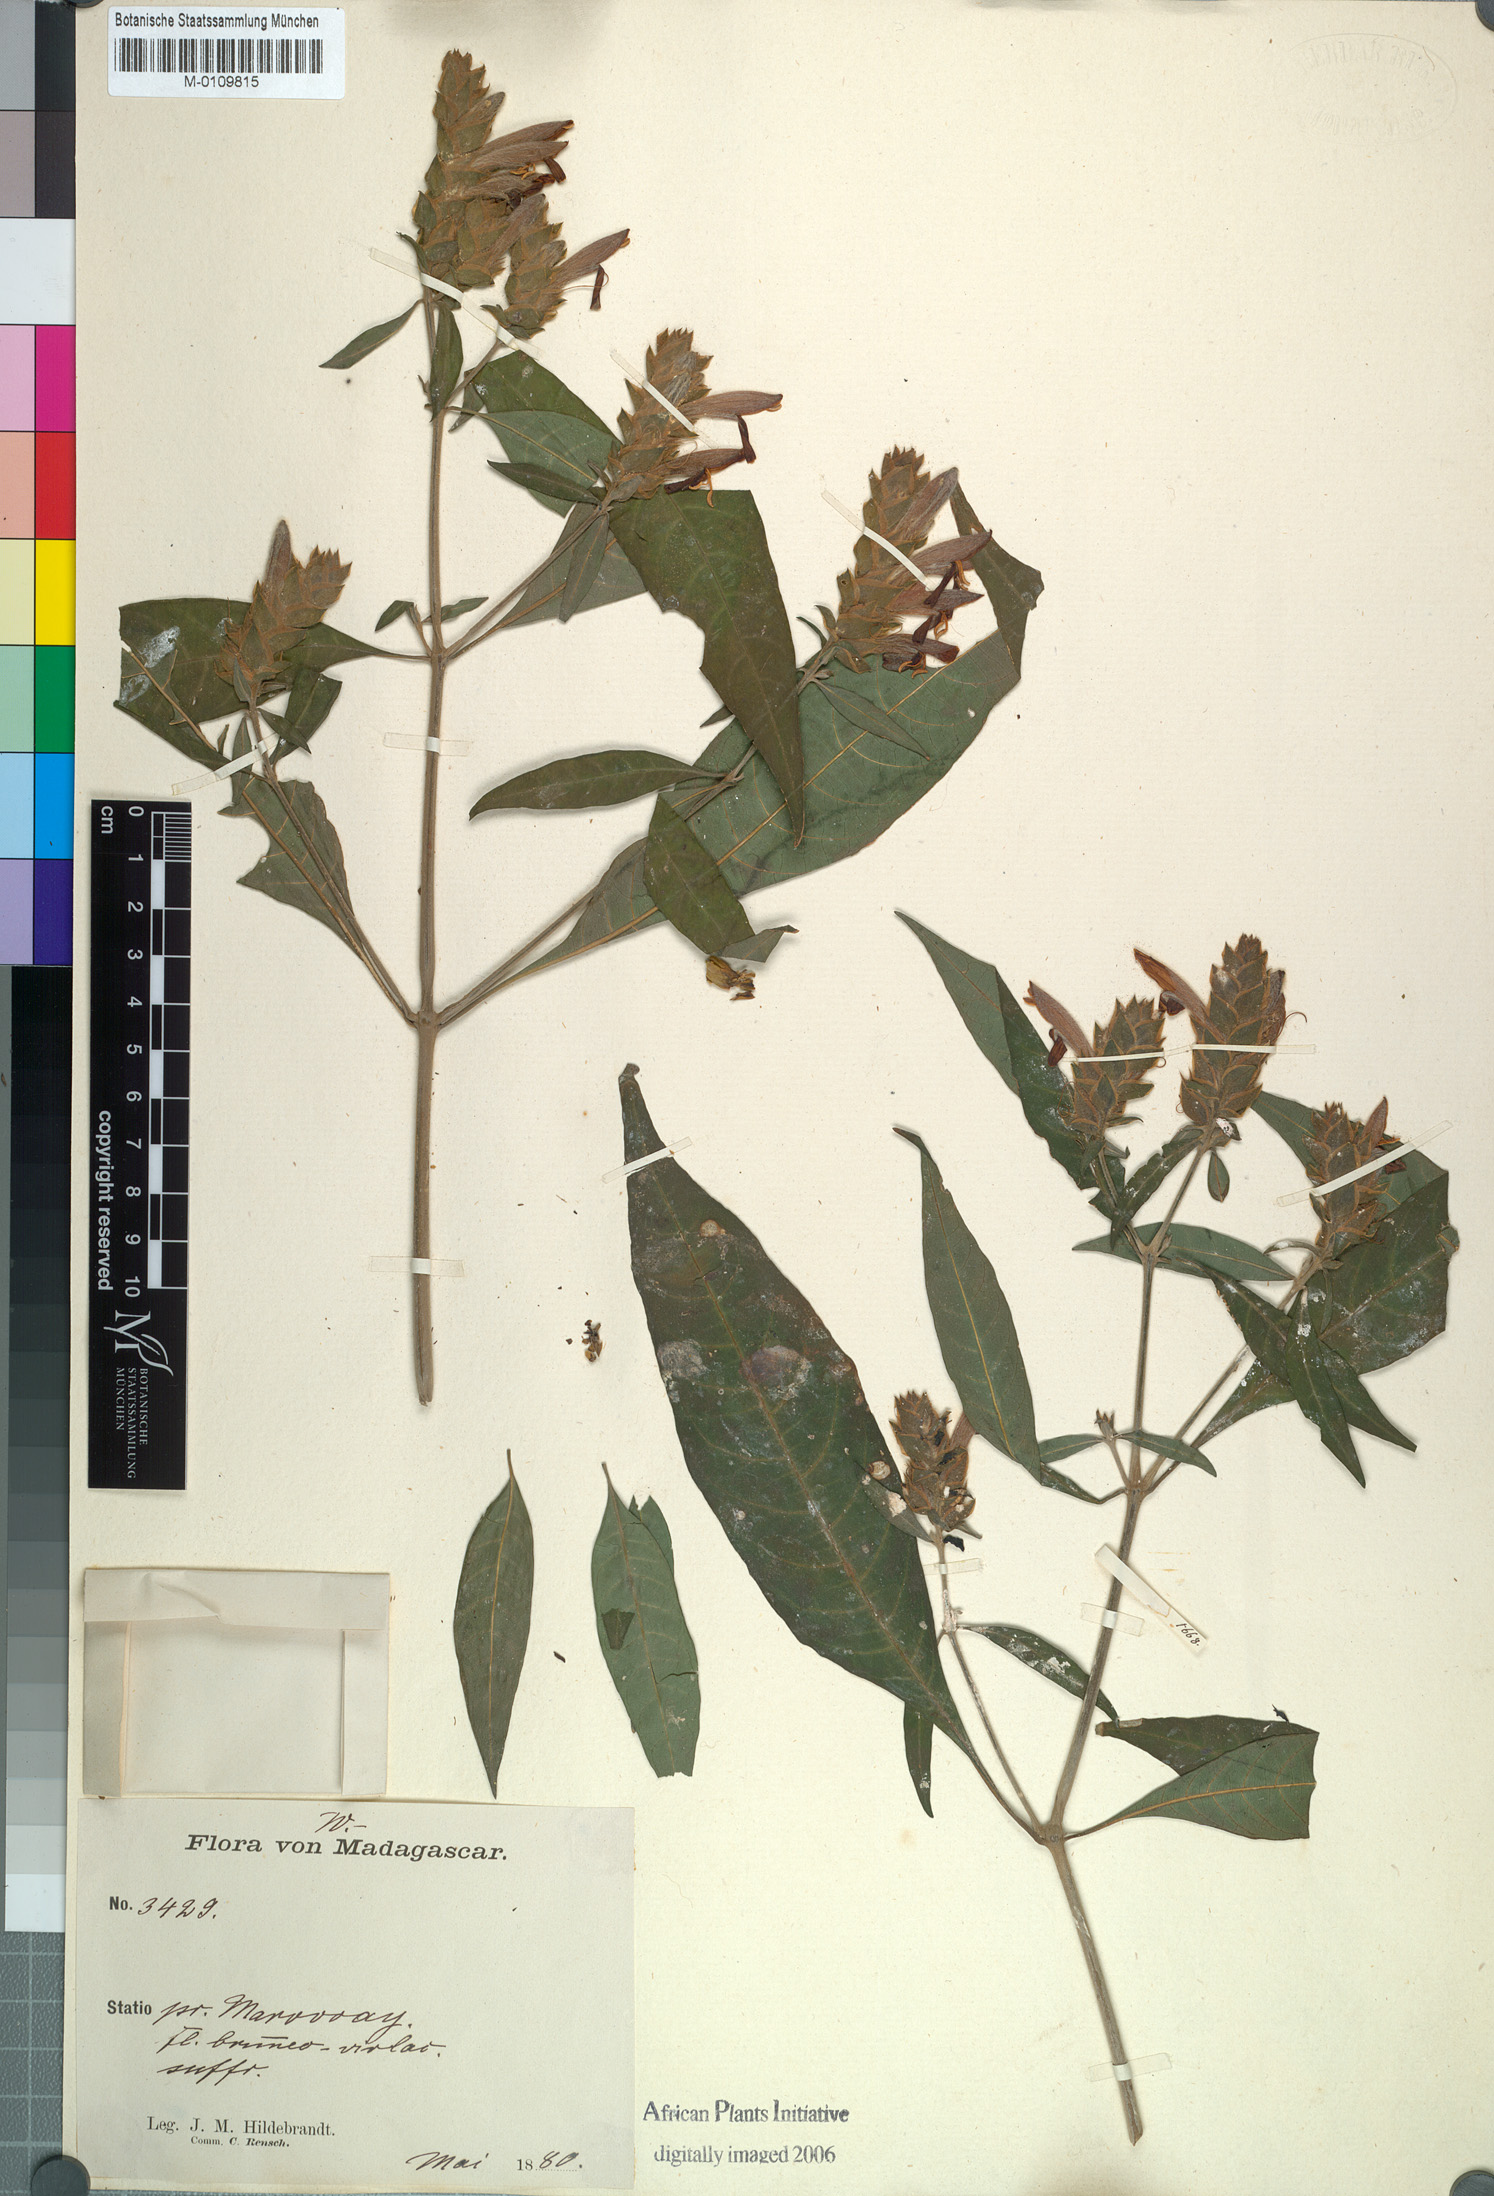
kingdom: Plantae
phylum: Tracheophyta
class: Magnoliopsida
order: Lamiales
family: Acanthaceae
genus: Justicia
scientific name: Justicia madagascariensis
